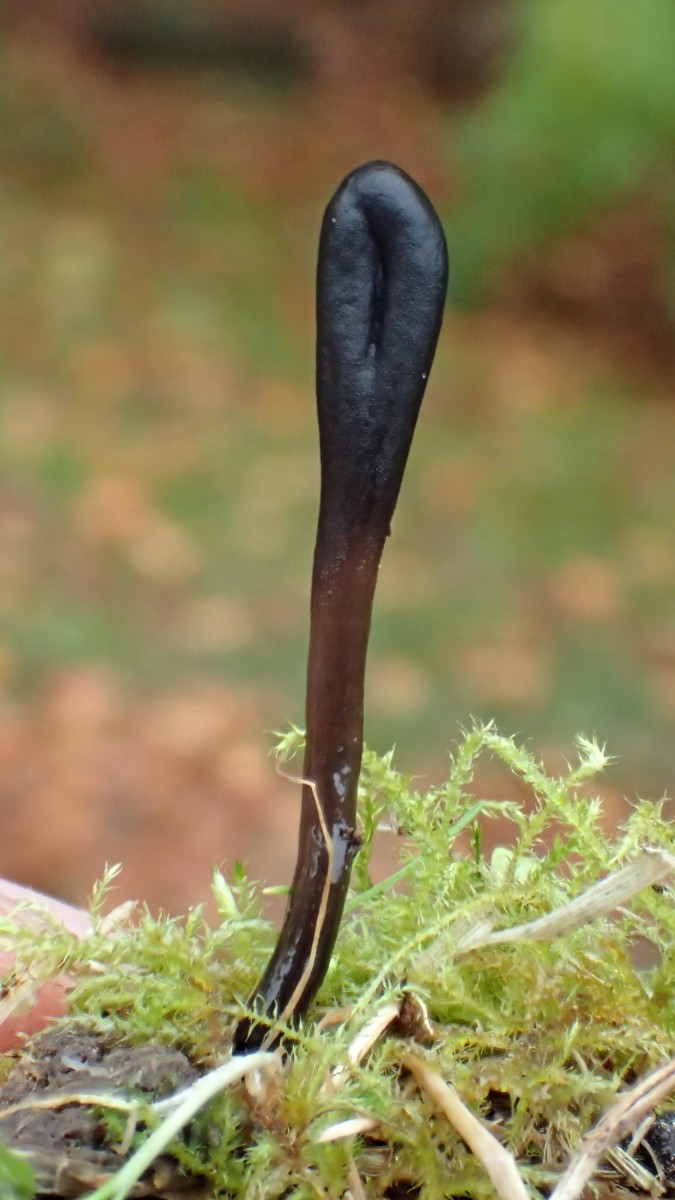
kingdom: Fungi
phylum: Ascomycota
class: Geoglossomycetes
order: Geoglossales
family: Geoglossaceae
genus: Glutinoglossum
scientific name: Glutinoglossum glutinosum
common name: slimet jordtunge
